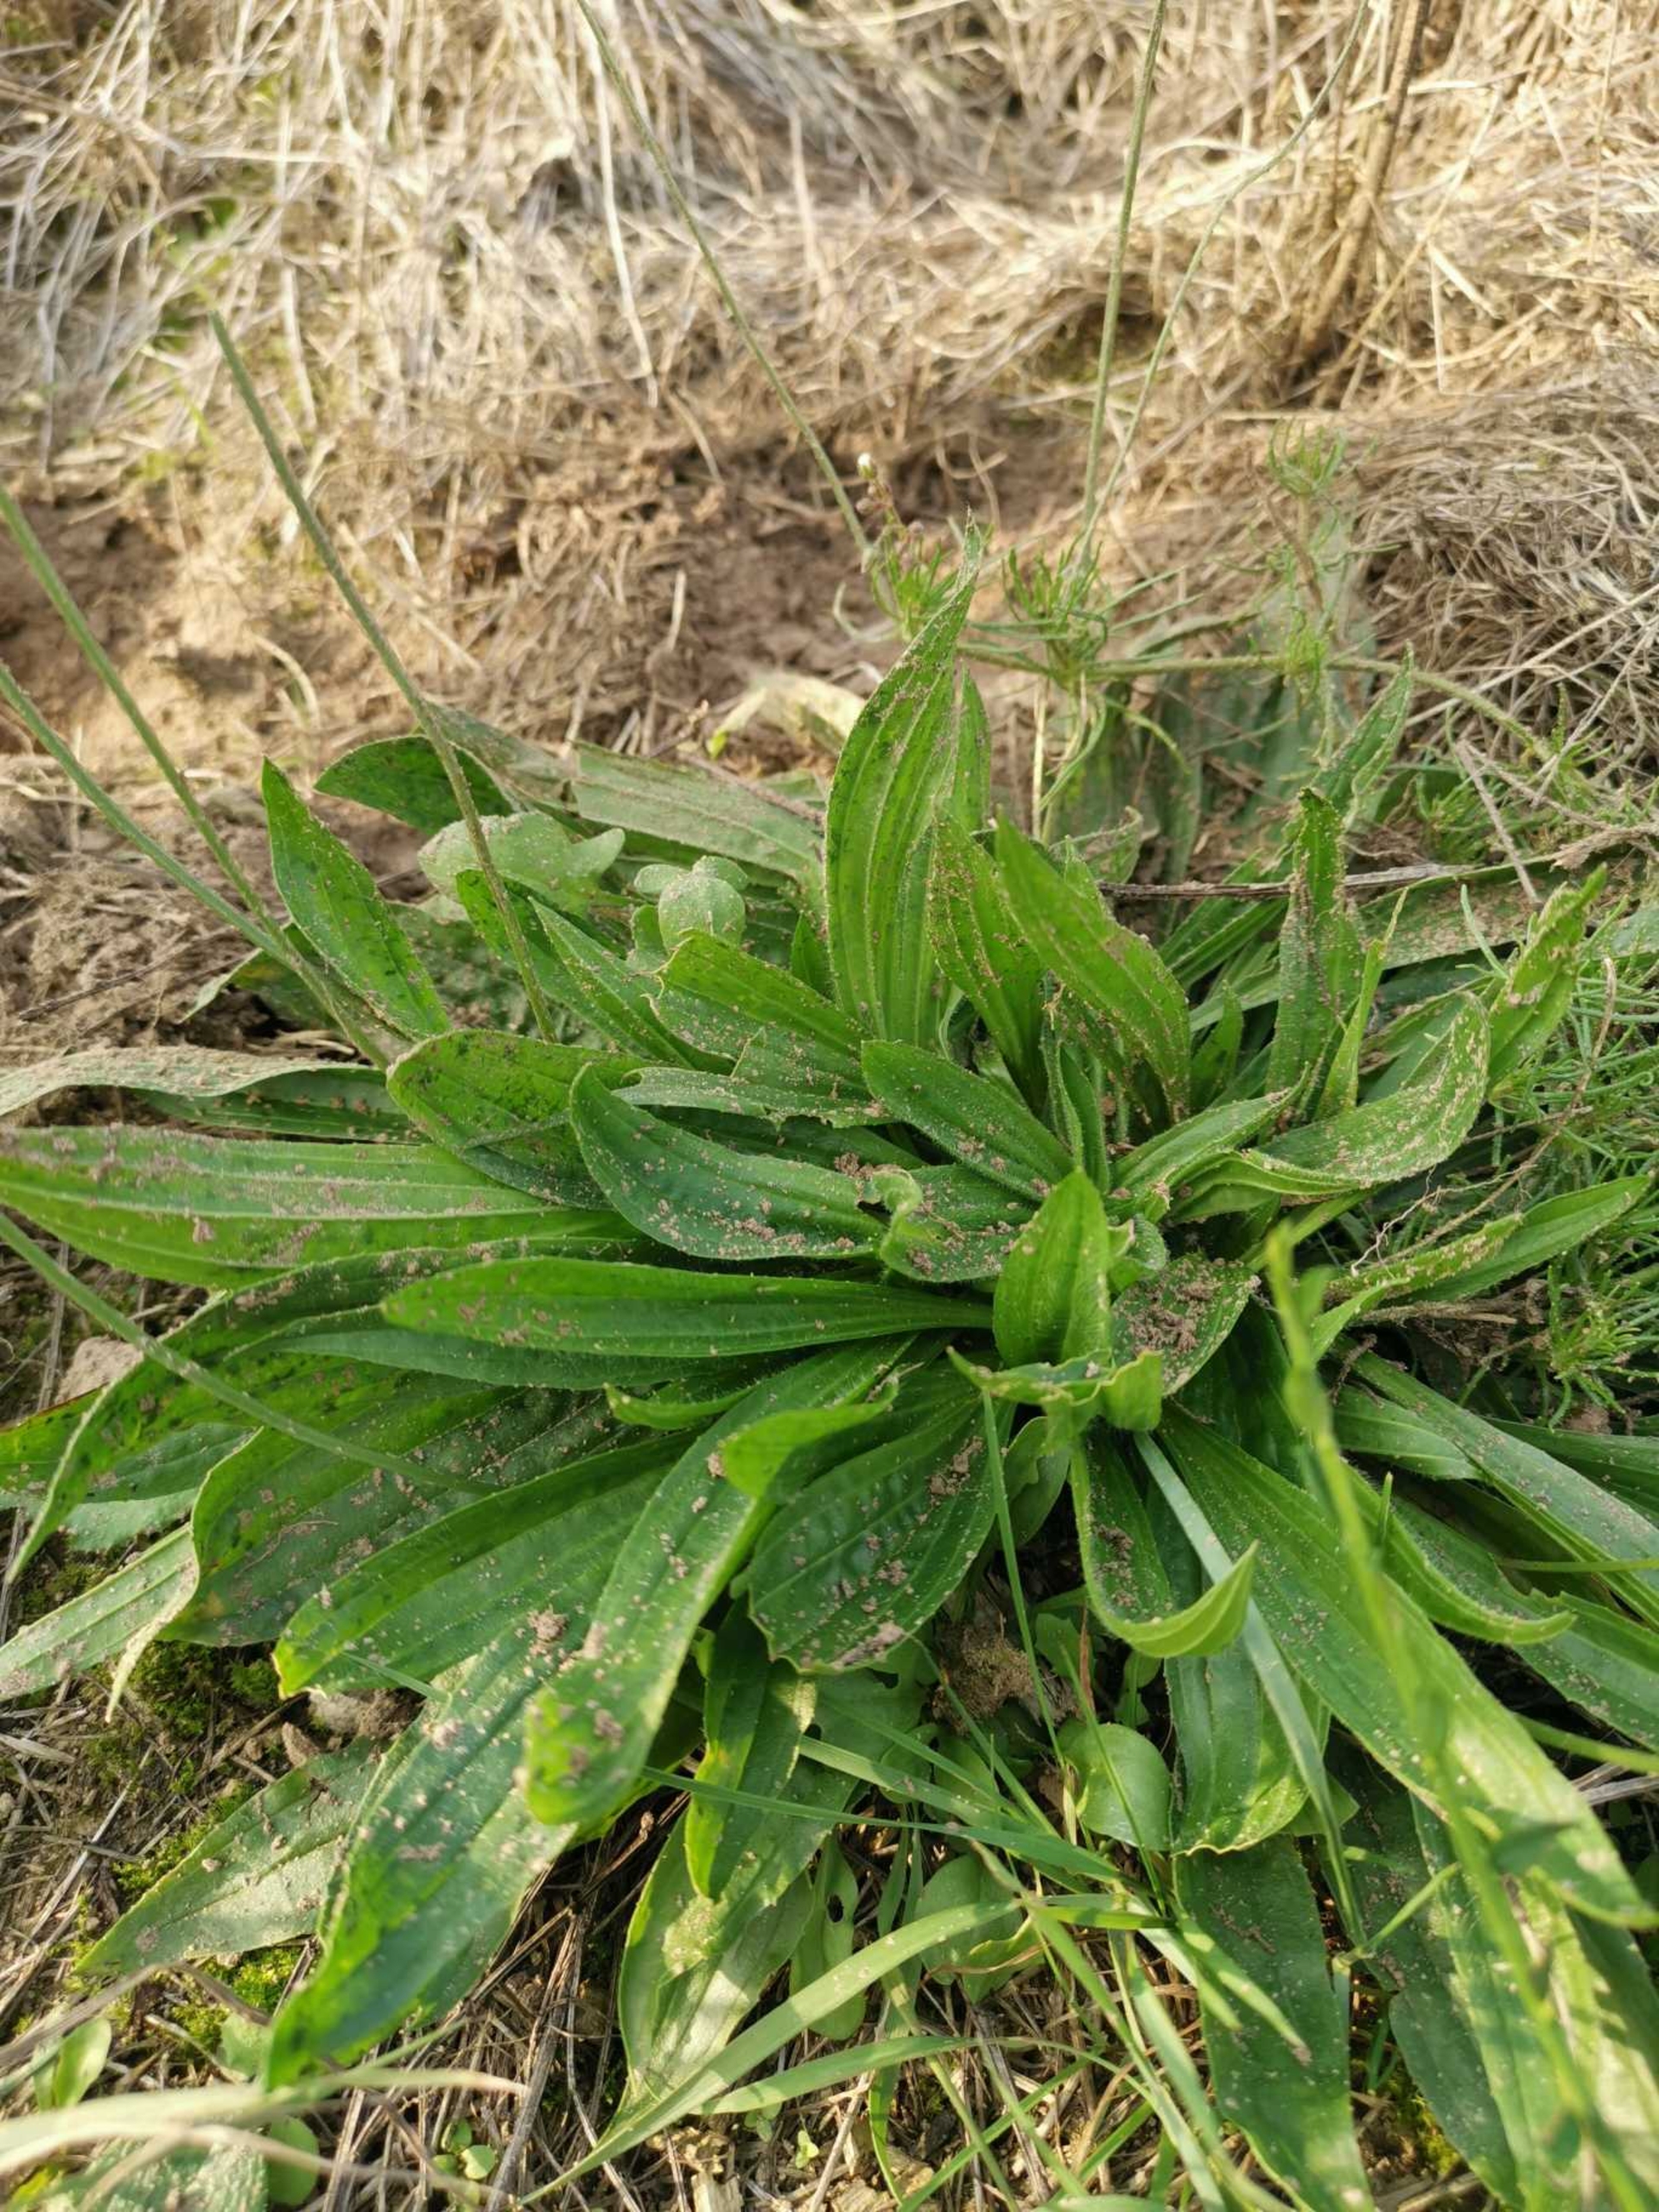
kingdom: Plantae
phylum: Tracheophyta
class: Magnoliopsida
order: Lamiales
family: Plantaginaceae
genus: Plantago
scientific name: Plantago lanceolata
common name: Lancet-vejbred
